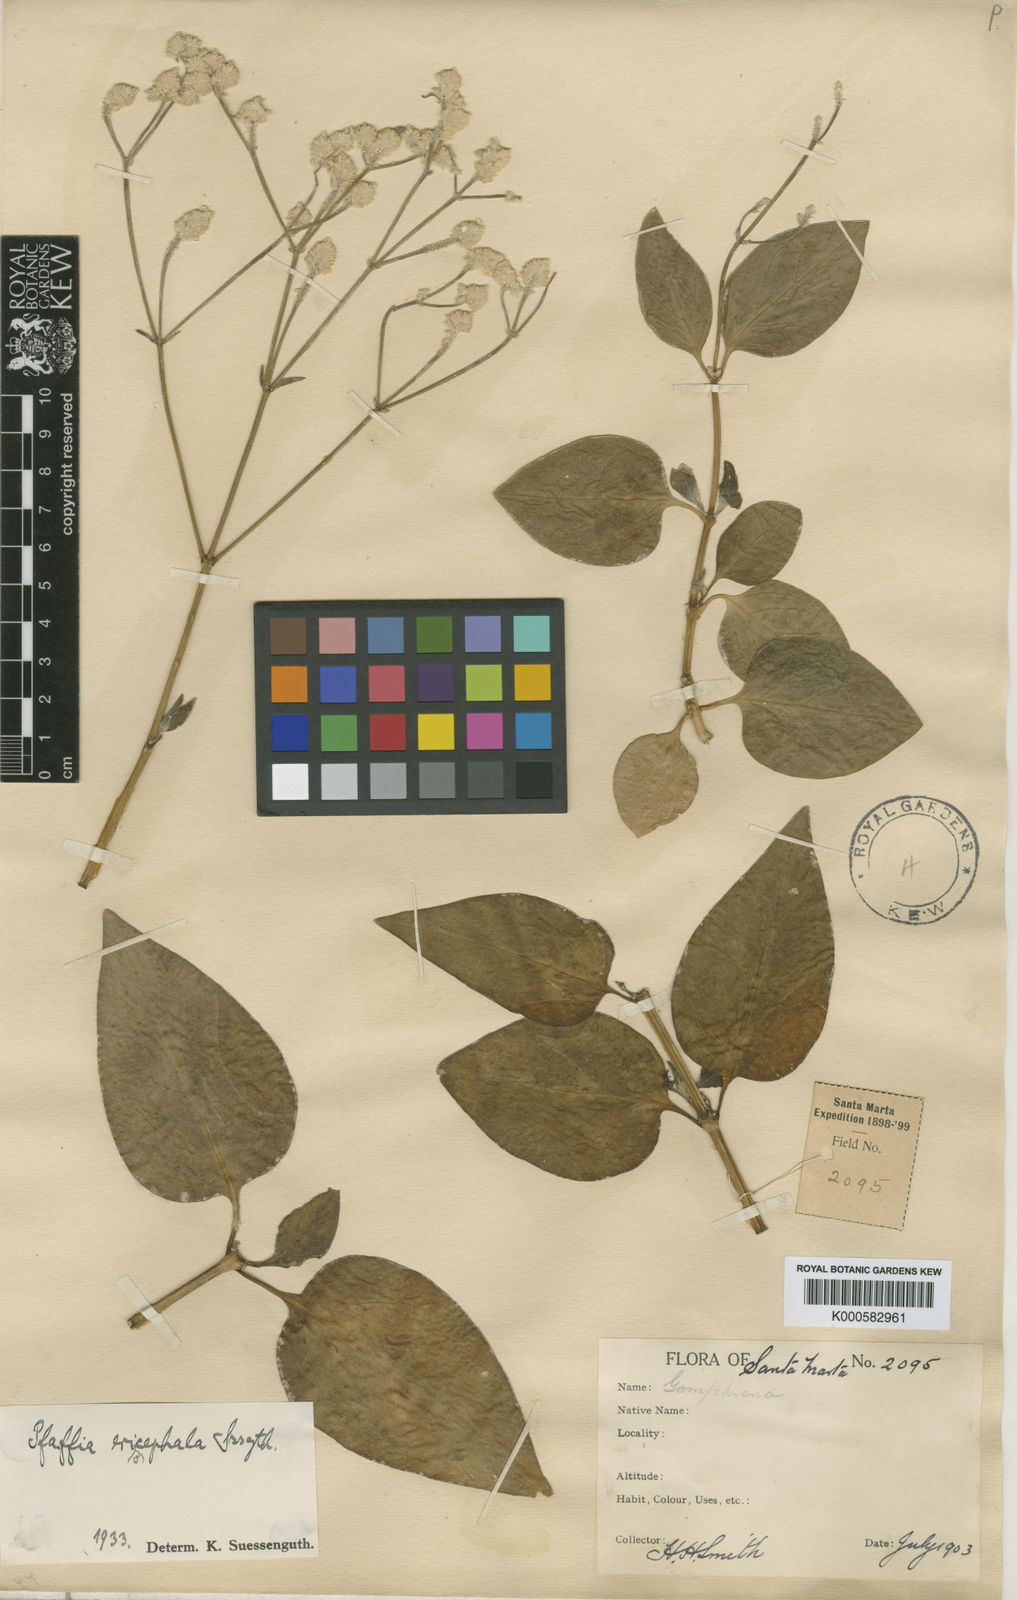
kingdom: Plantae
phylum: Tracheophyta
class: Magnoliopsida
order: Caryophyllales
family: Amaranthaceae
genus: Pfaffia
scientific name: Pfaffia eriocephala
